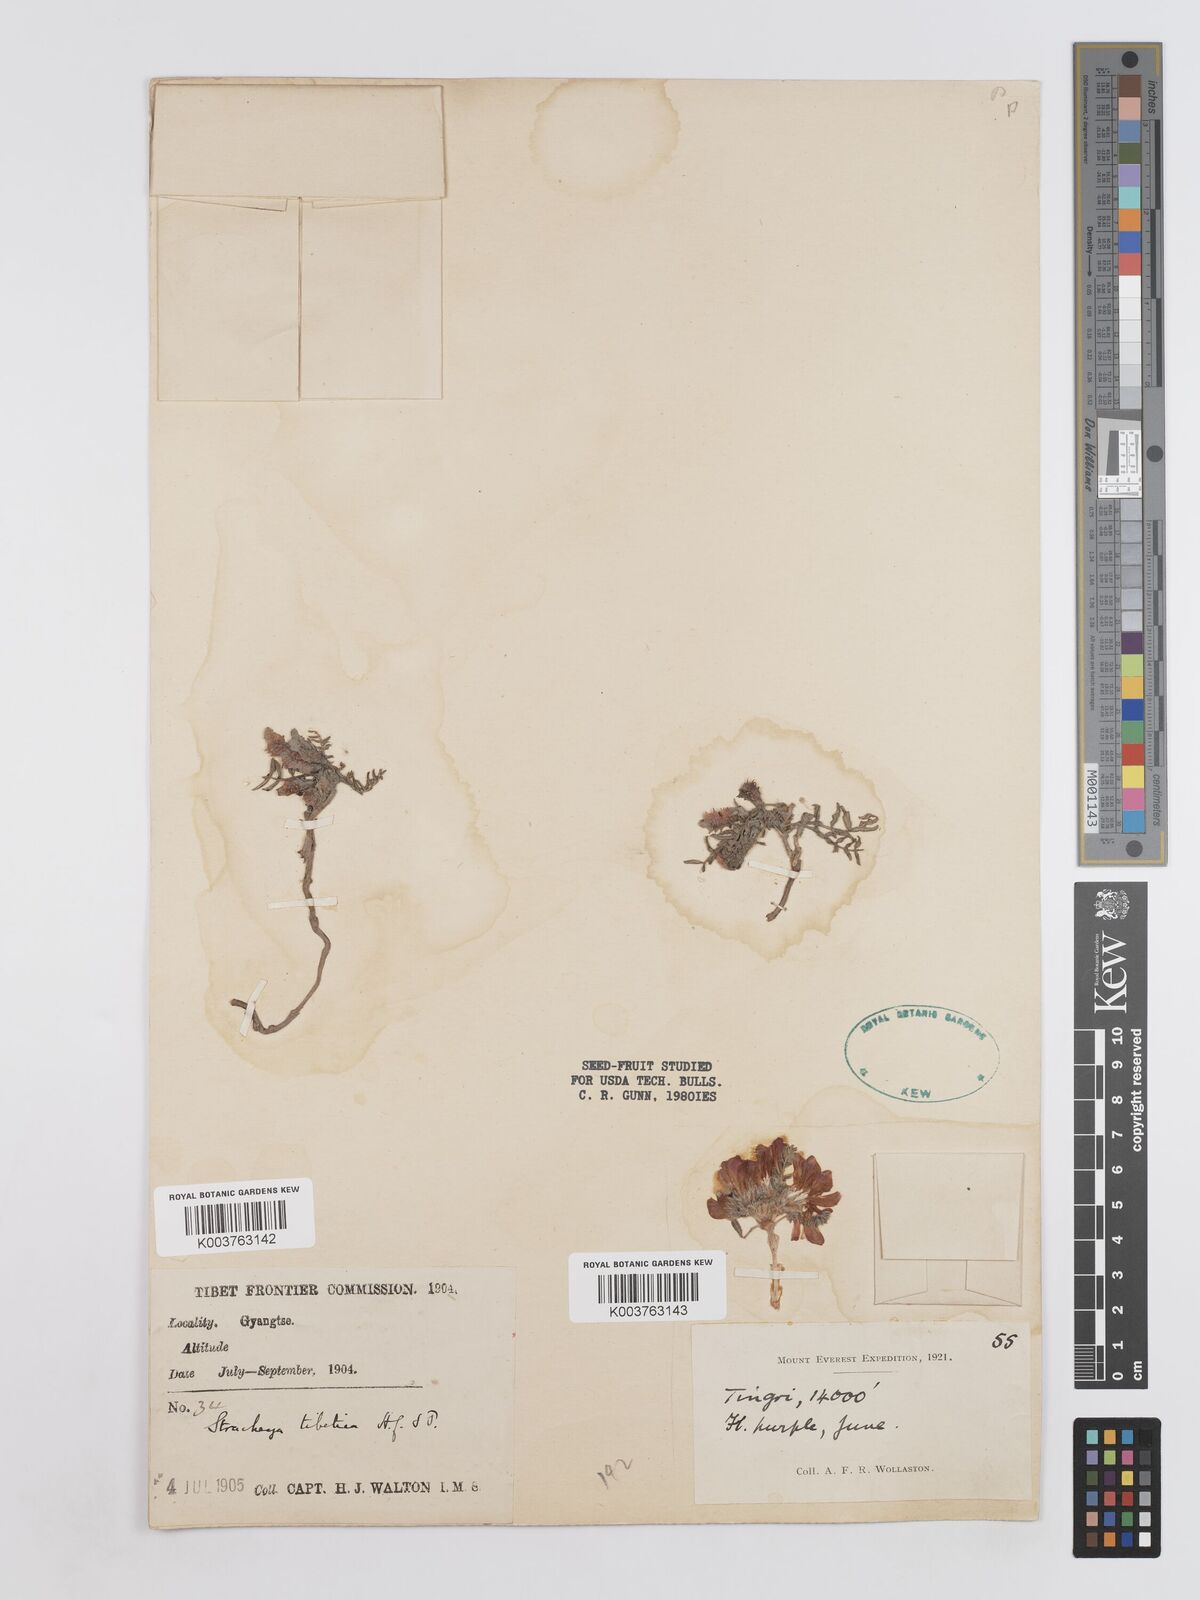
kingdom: Plantae
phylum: Tracheophyta
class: Magnoliopsida
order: Fabales
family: Fabaceae
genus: Hedysarum
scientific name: Hedysarum tibeticum
